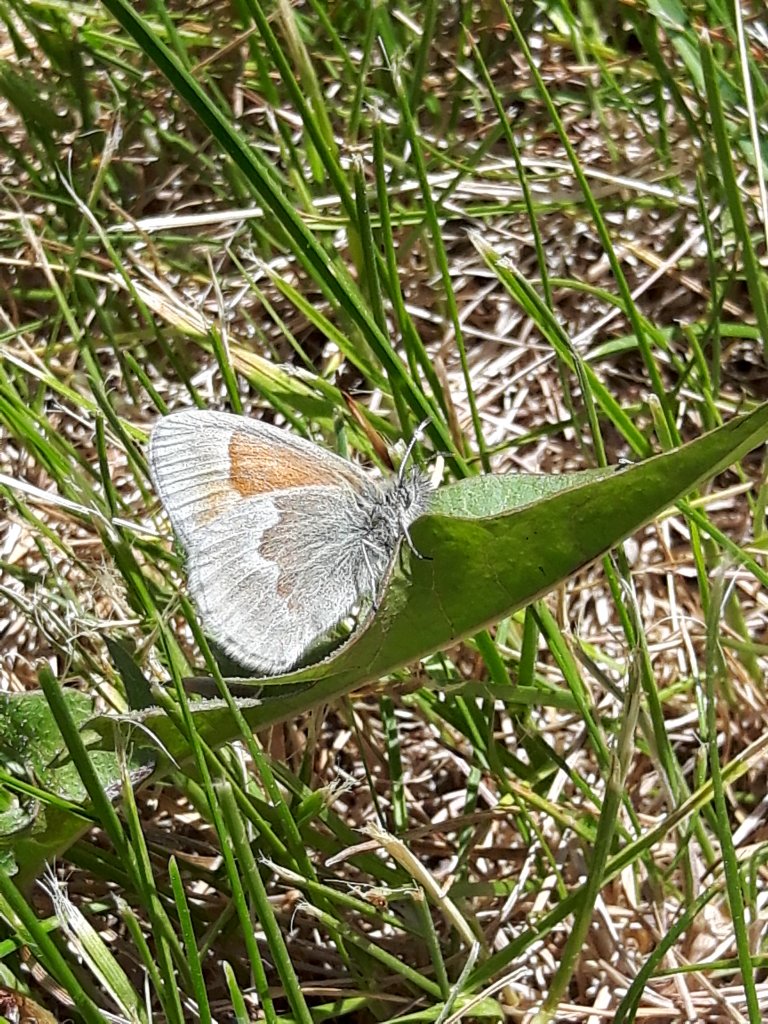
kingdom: Animalia
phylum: Arthropoda
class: Insecta
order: Lepidoptera
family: Nymphalidae
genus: Coenonympha
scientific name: Coenonympha tullia
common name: Large Heath
